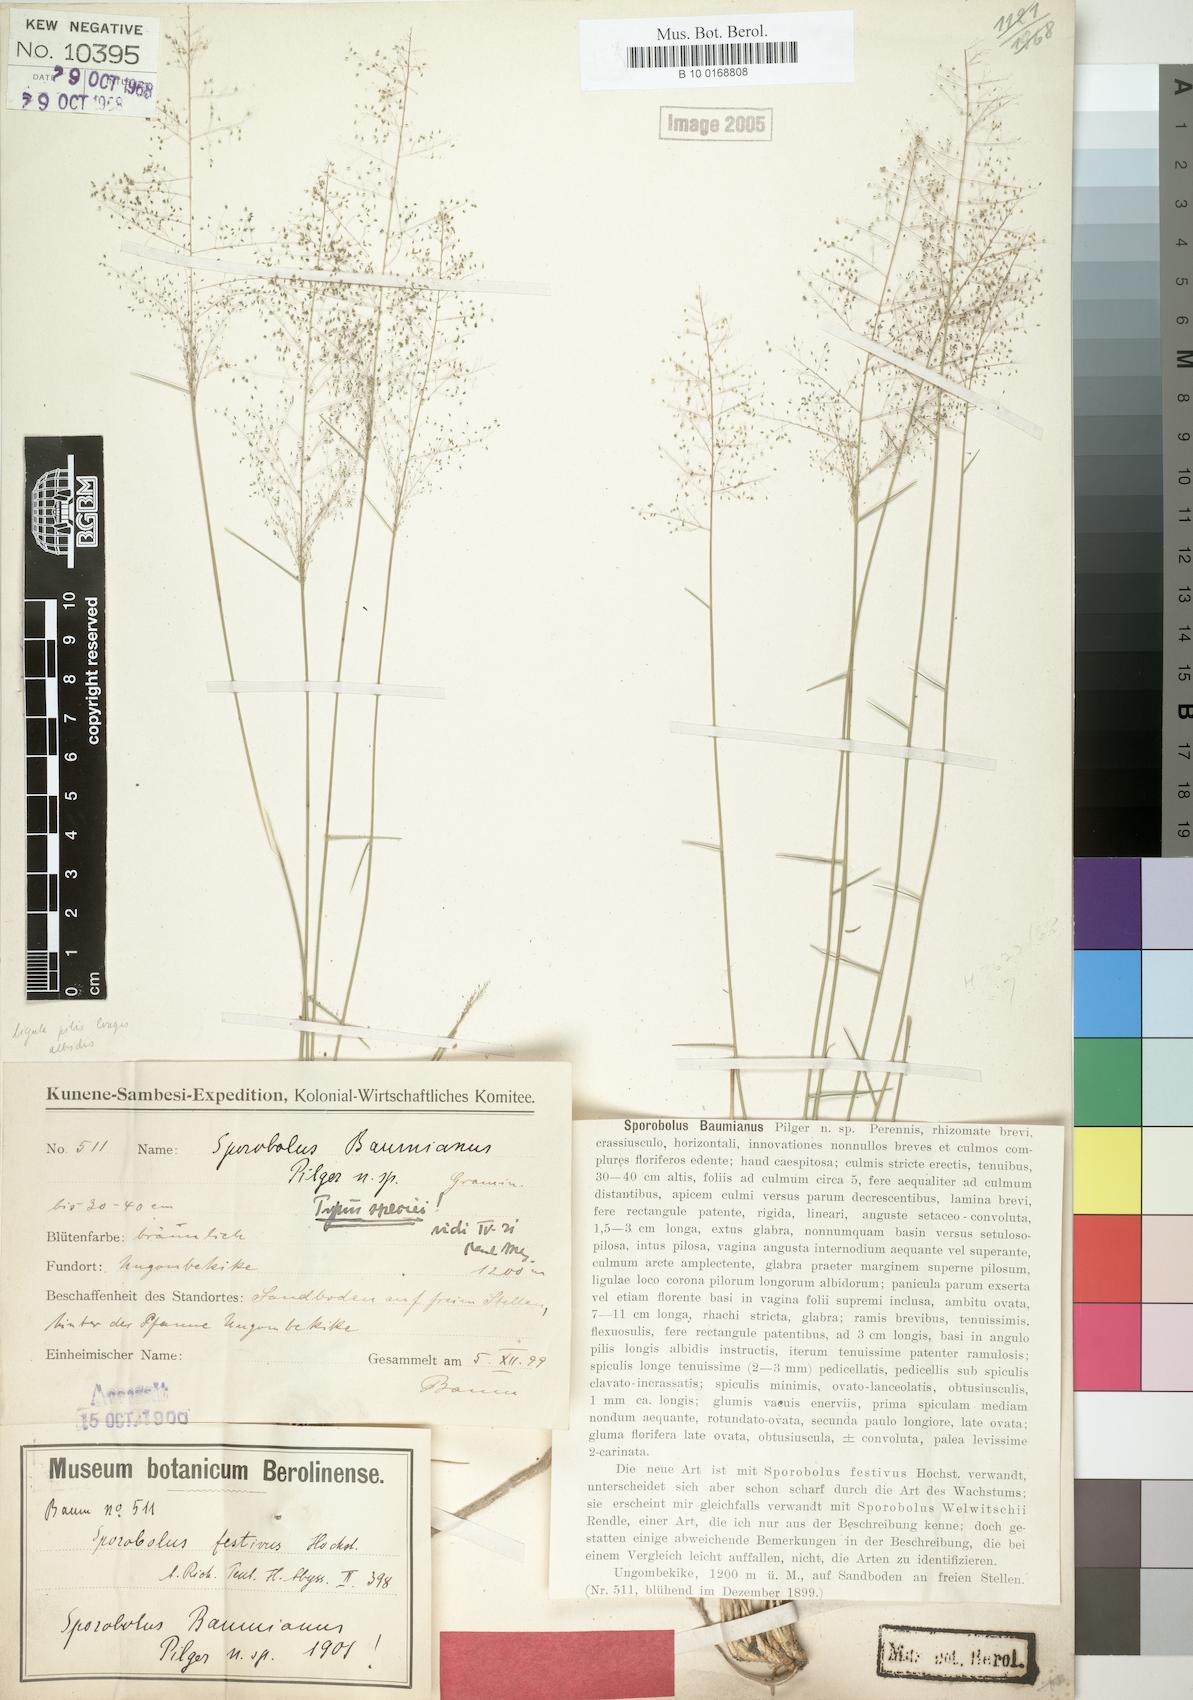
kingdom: Plantae
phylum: Tracheophyta
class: Liliopsida
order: Poales
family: Poaceae
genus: Sporobolus
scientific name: Sporobolus welwitschii
